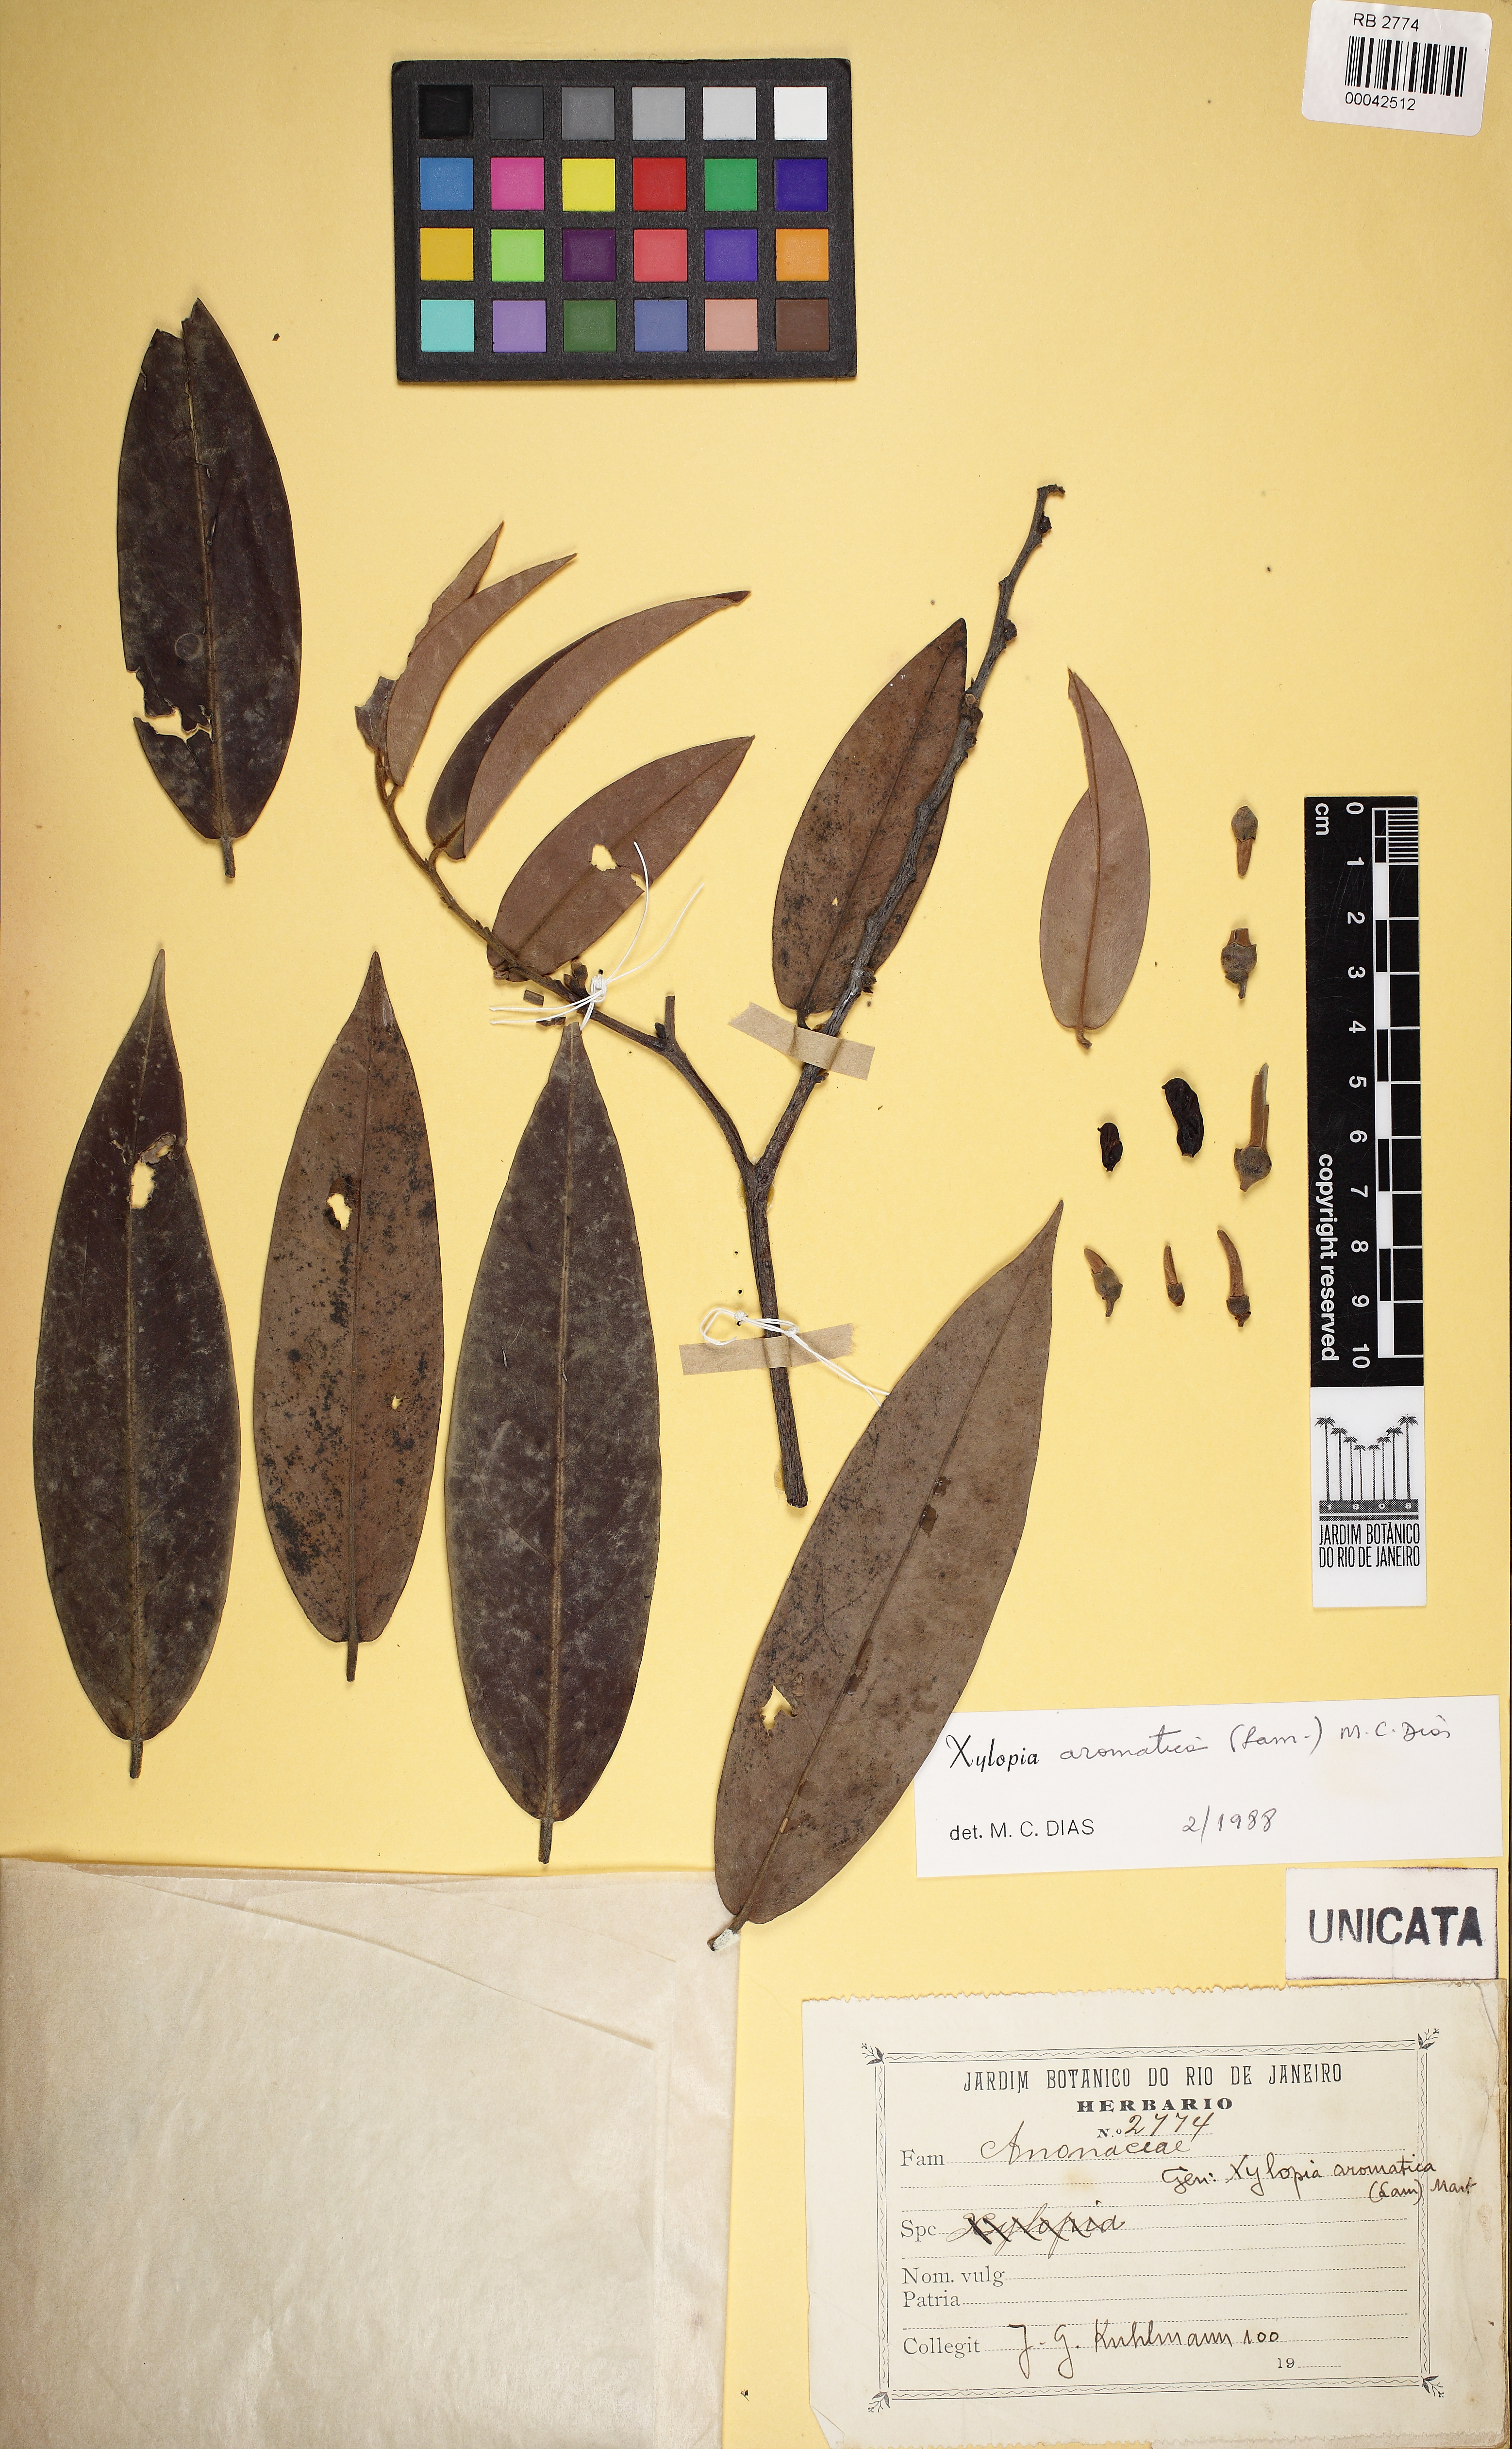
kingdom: Plantae
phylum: Tracheophyta
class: Magnoliopsida
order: Magnoliales
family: Annonaceae
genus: Xylopia
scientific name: Xylopia aromatica
